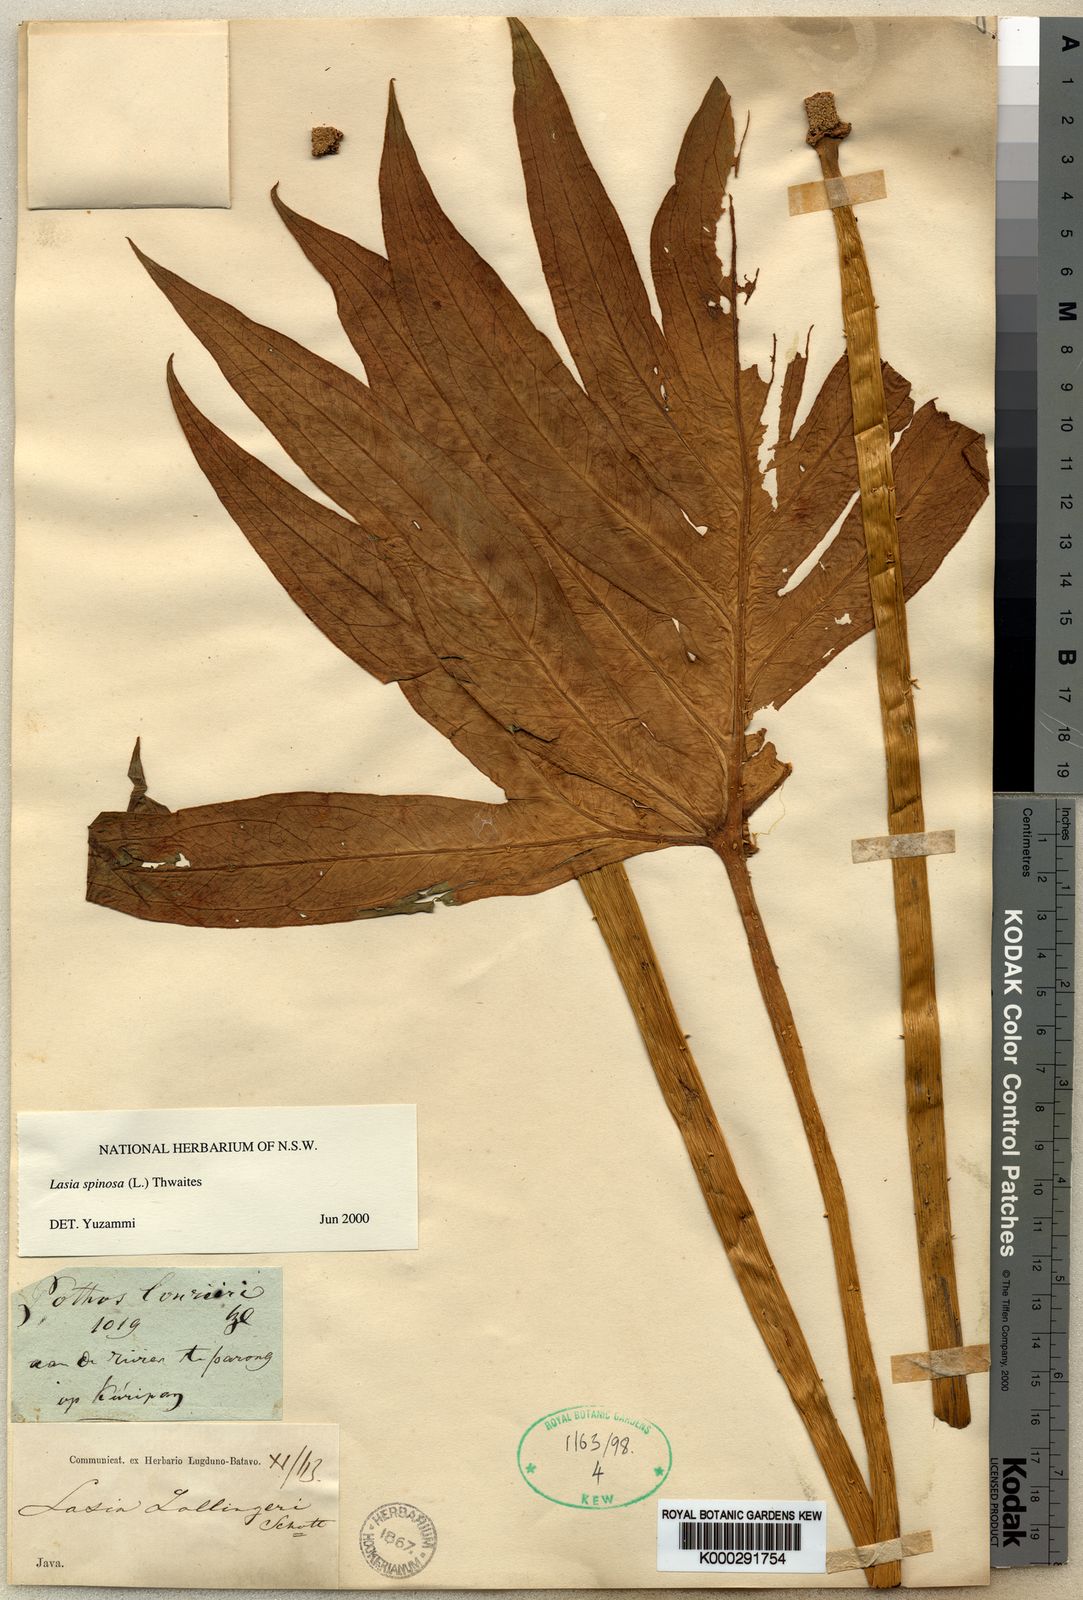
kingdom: Plantae
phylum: Tracheophyta
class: Liliopsida
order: Alismatales
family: Araceae
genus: Lasia
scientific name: Lasia spinosa
